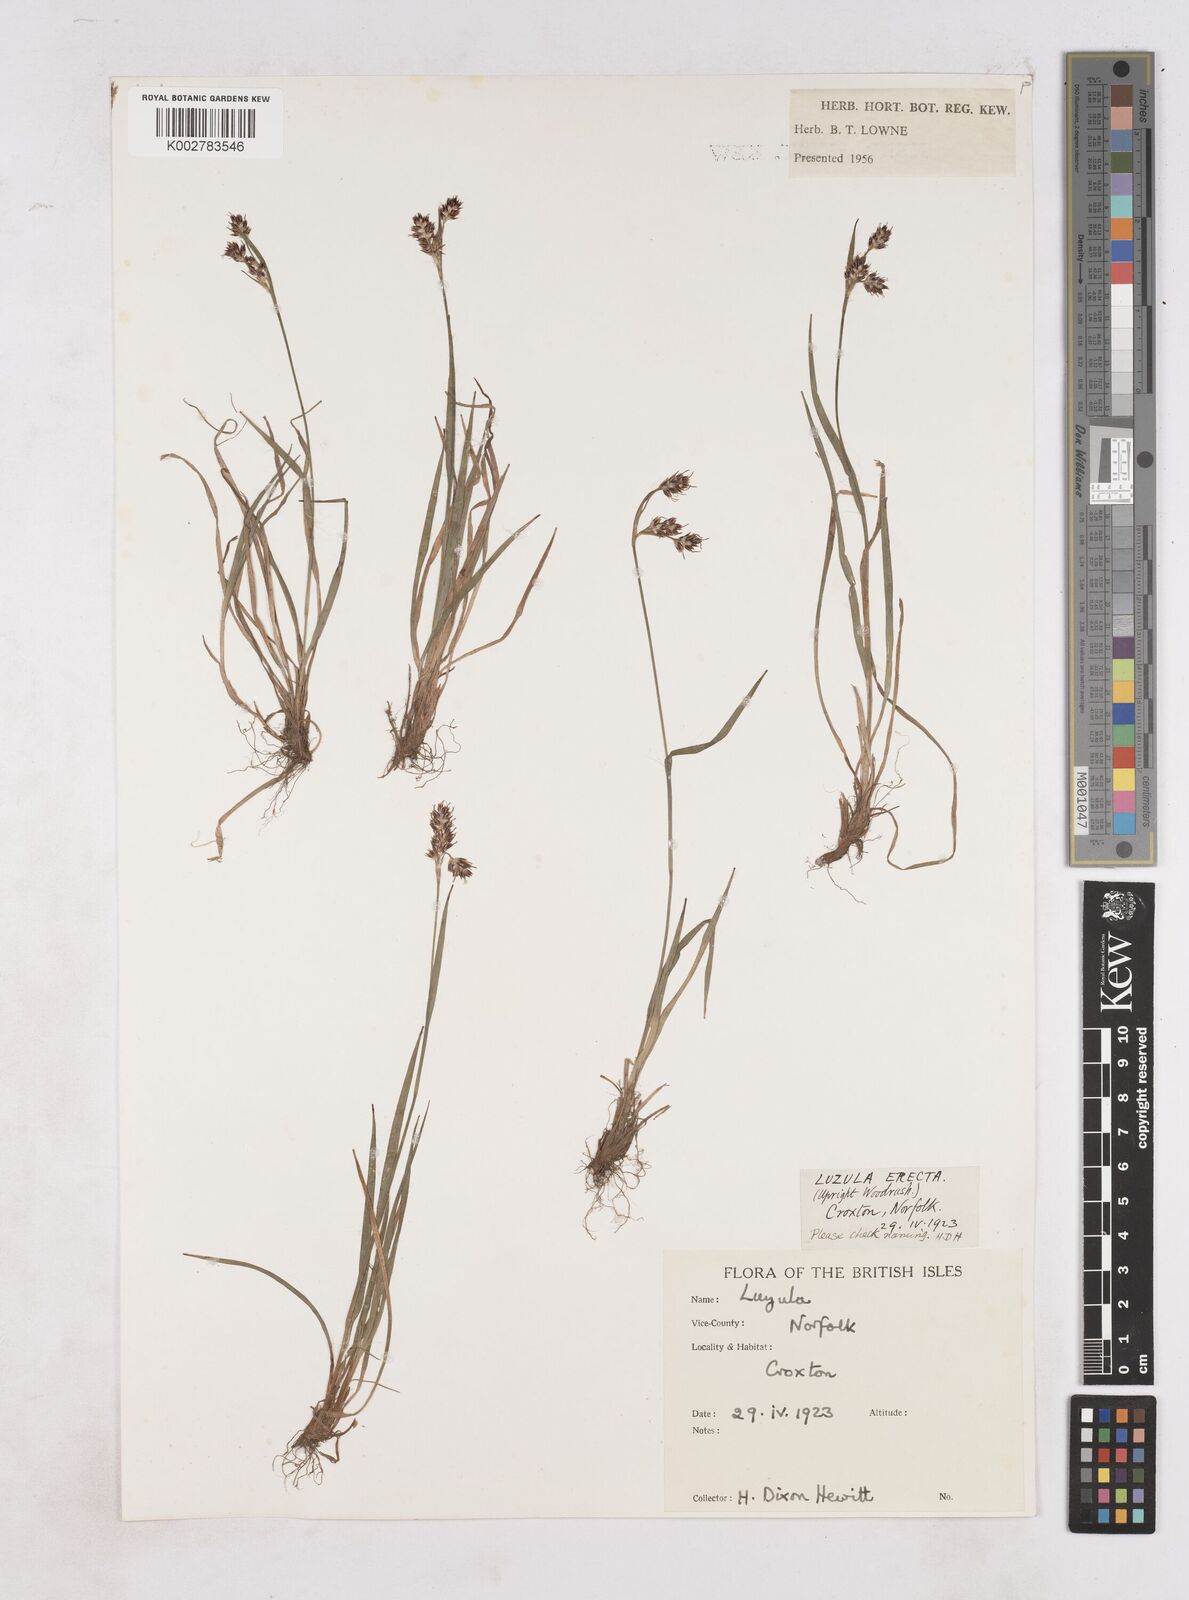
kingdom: Plantae
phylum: Tracheophyta
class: Liliopsida
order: Poales
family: Juncaceae
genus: Luzula
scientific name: Luzula
